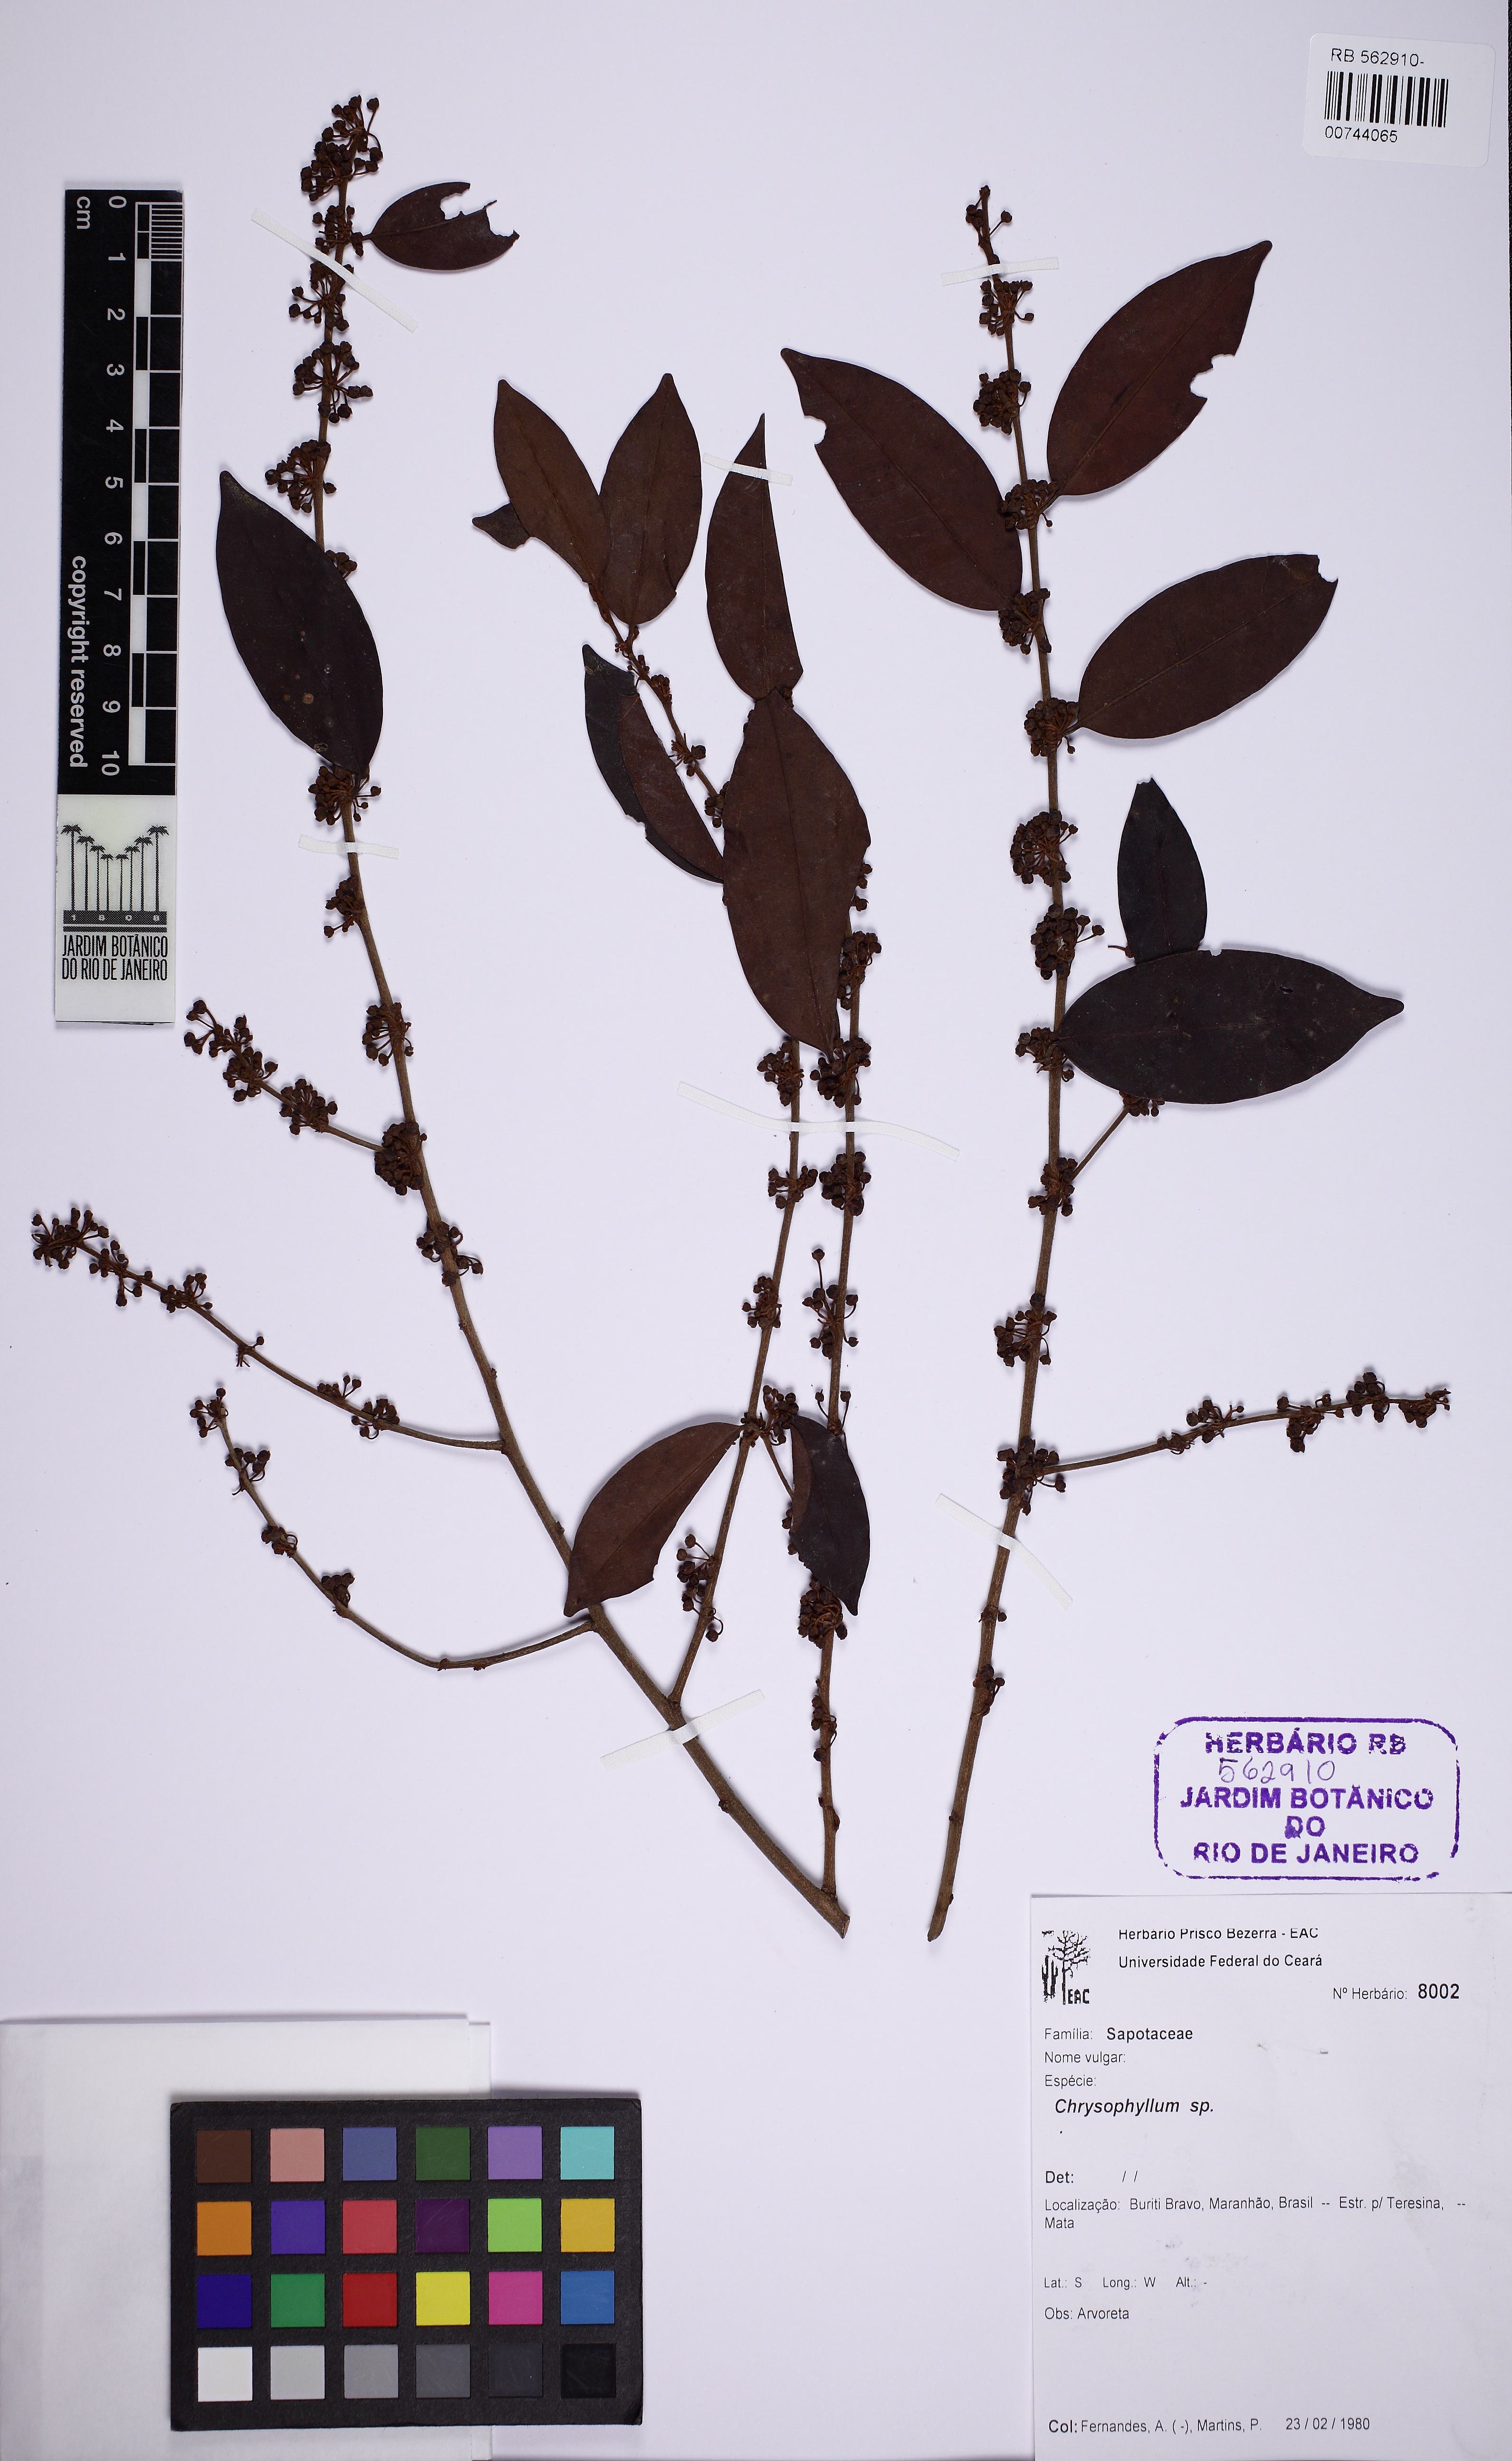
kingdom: Plantae
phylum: Tracheophyta
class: Magnoliopsida
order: Ericales
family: Sapotaceae
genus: Chrysophyllum
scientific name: Chrysophyllum arenarium
